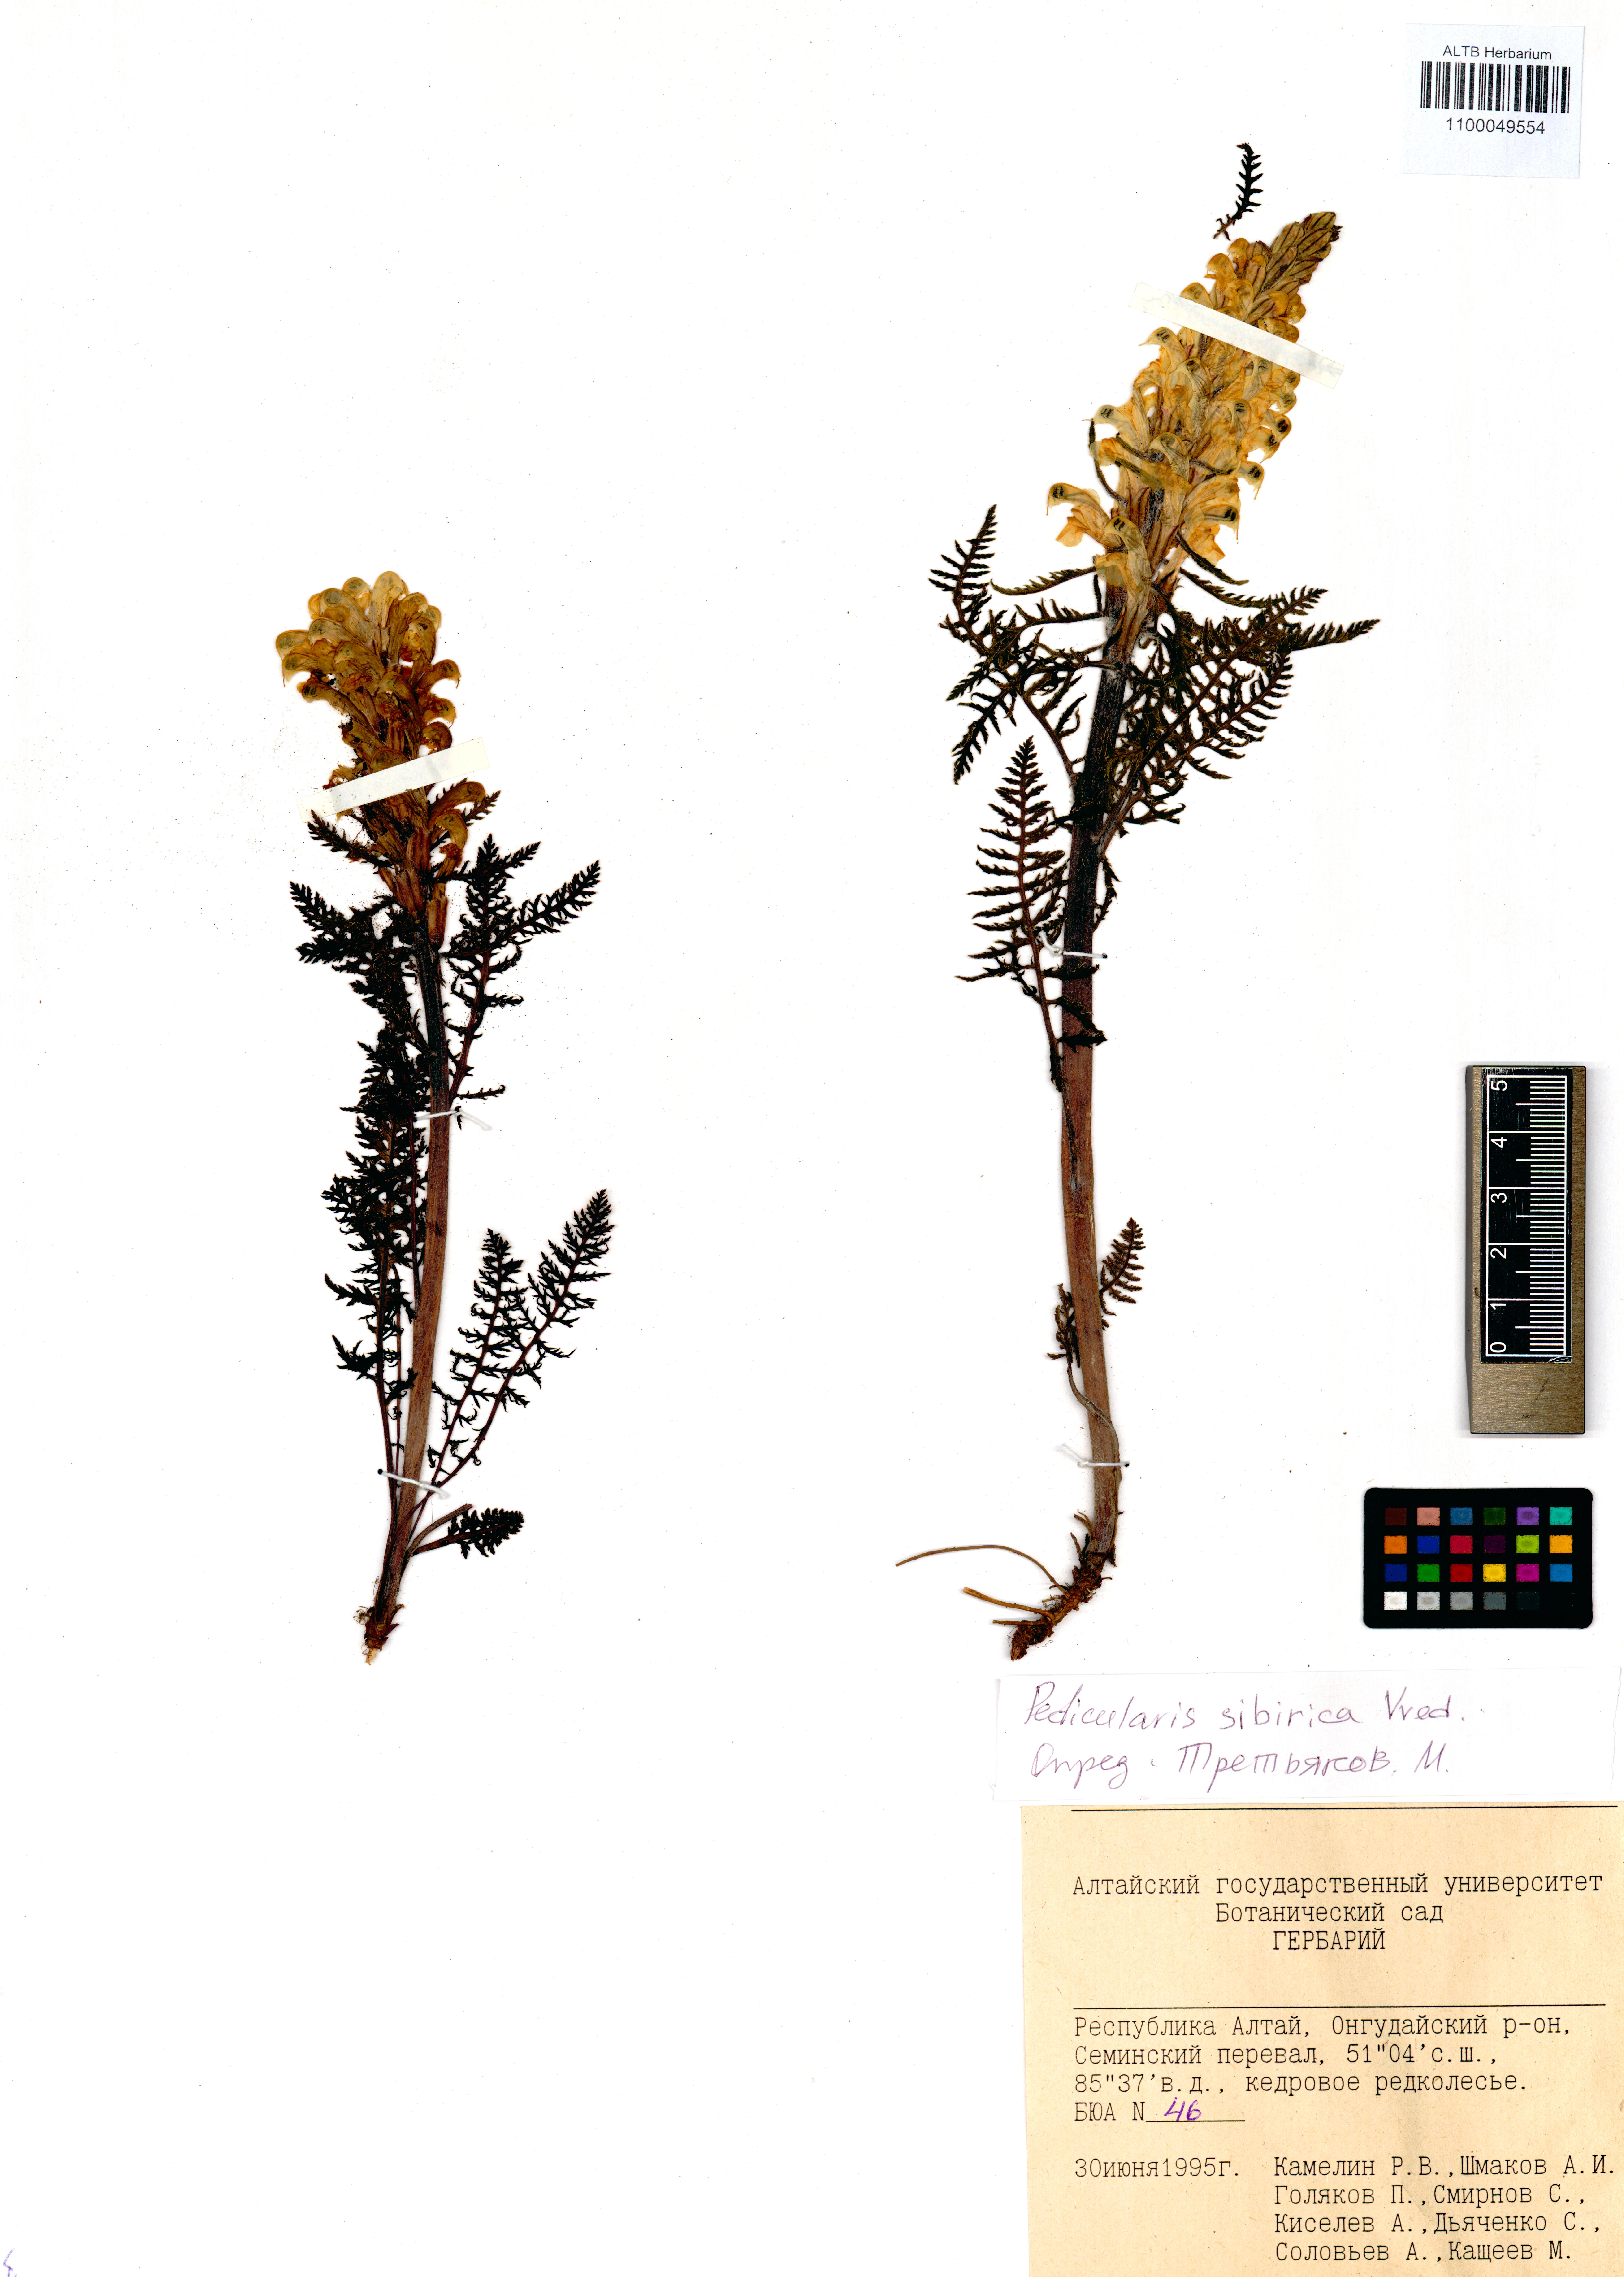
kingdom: Plantae
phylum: Tracheophyta
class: Magnoliopsida
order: Lamiales
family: Orobanchaceae
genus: Pedicularis
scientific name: Pedicularis sibirica
